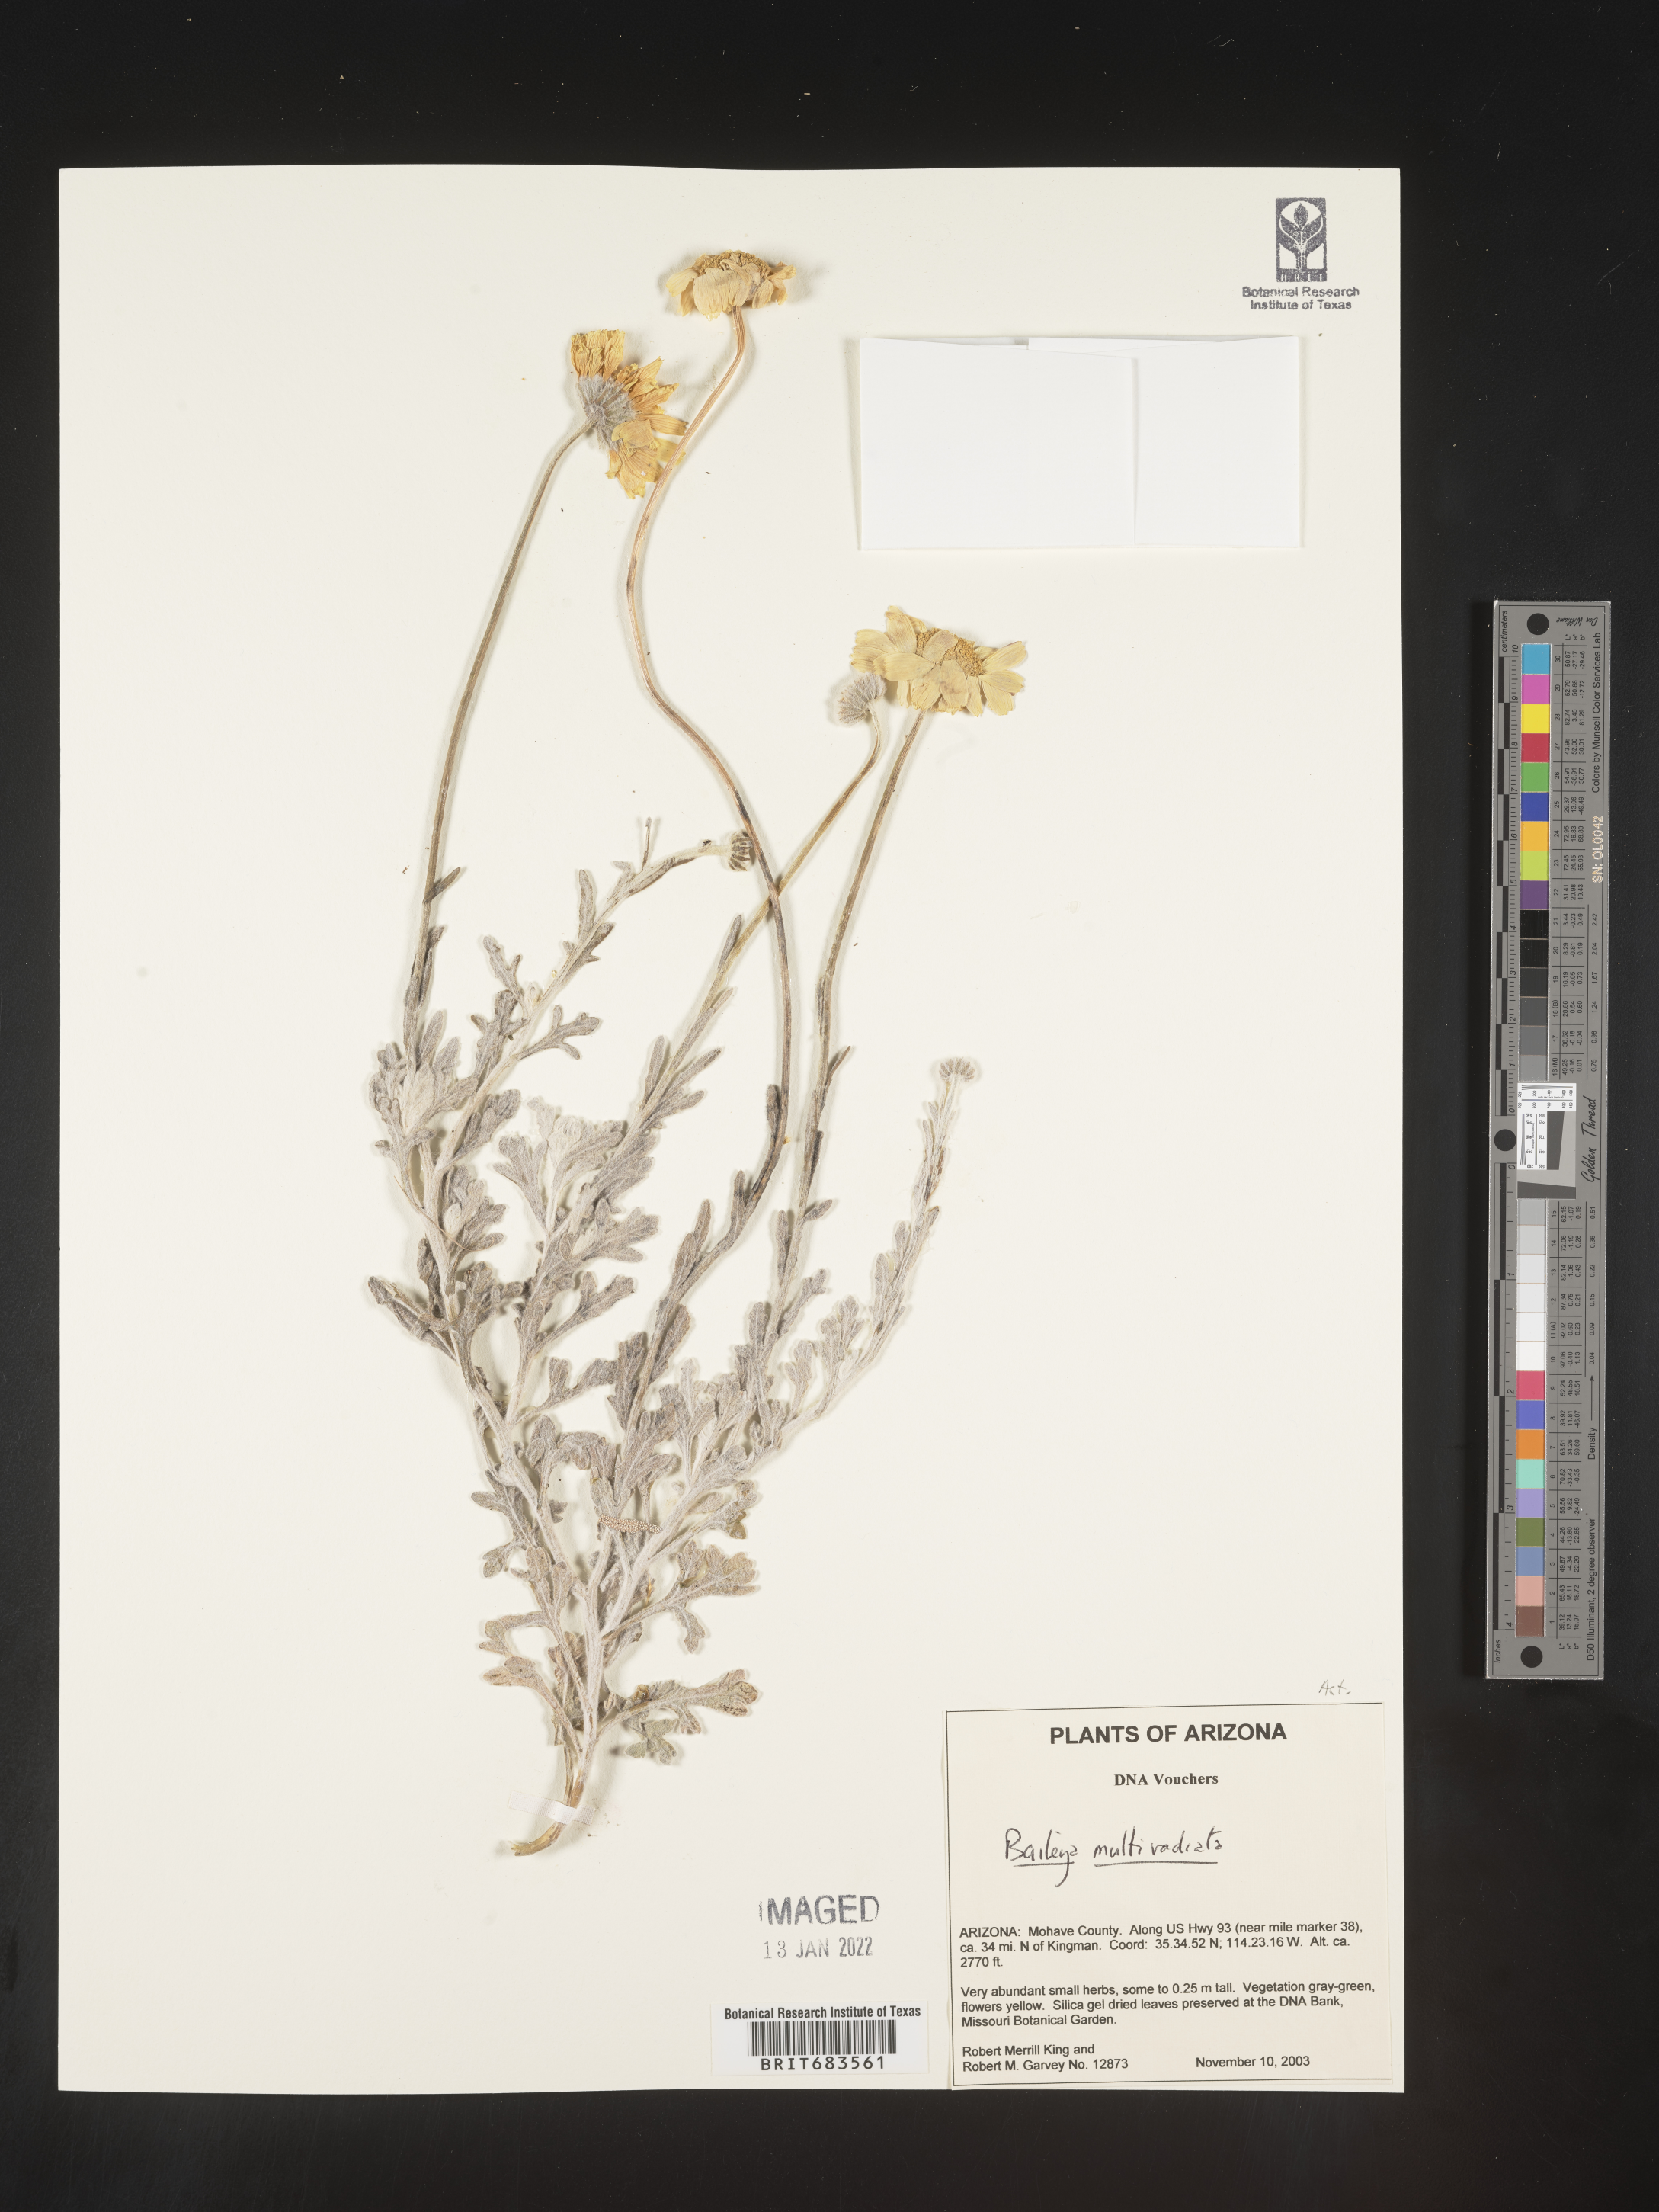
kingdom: Plantae
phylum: Tracheophyta
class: Magnoliopsida
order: Asterales
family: Asteraceae
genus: Baileya
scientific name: Baileya multiradiata
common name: Desert-marigold
